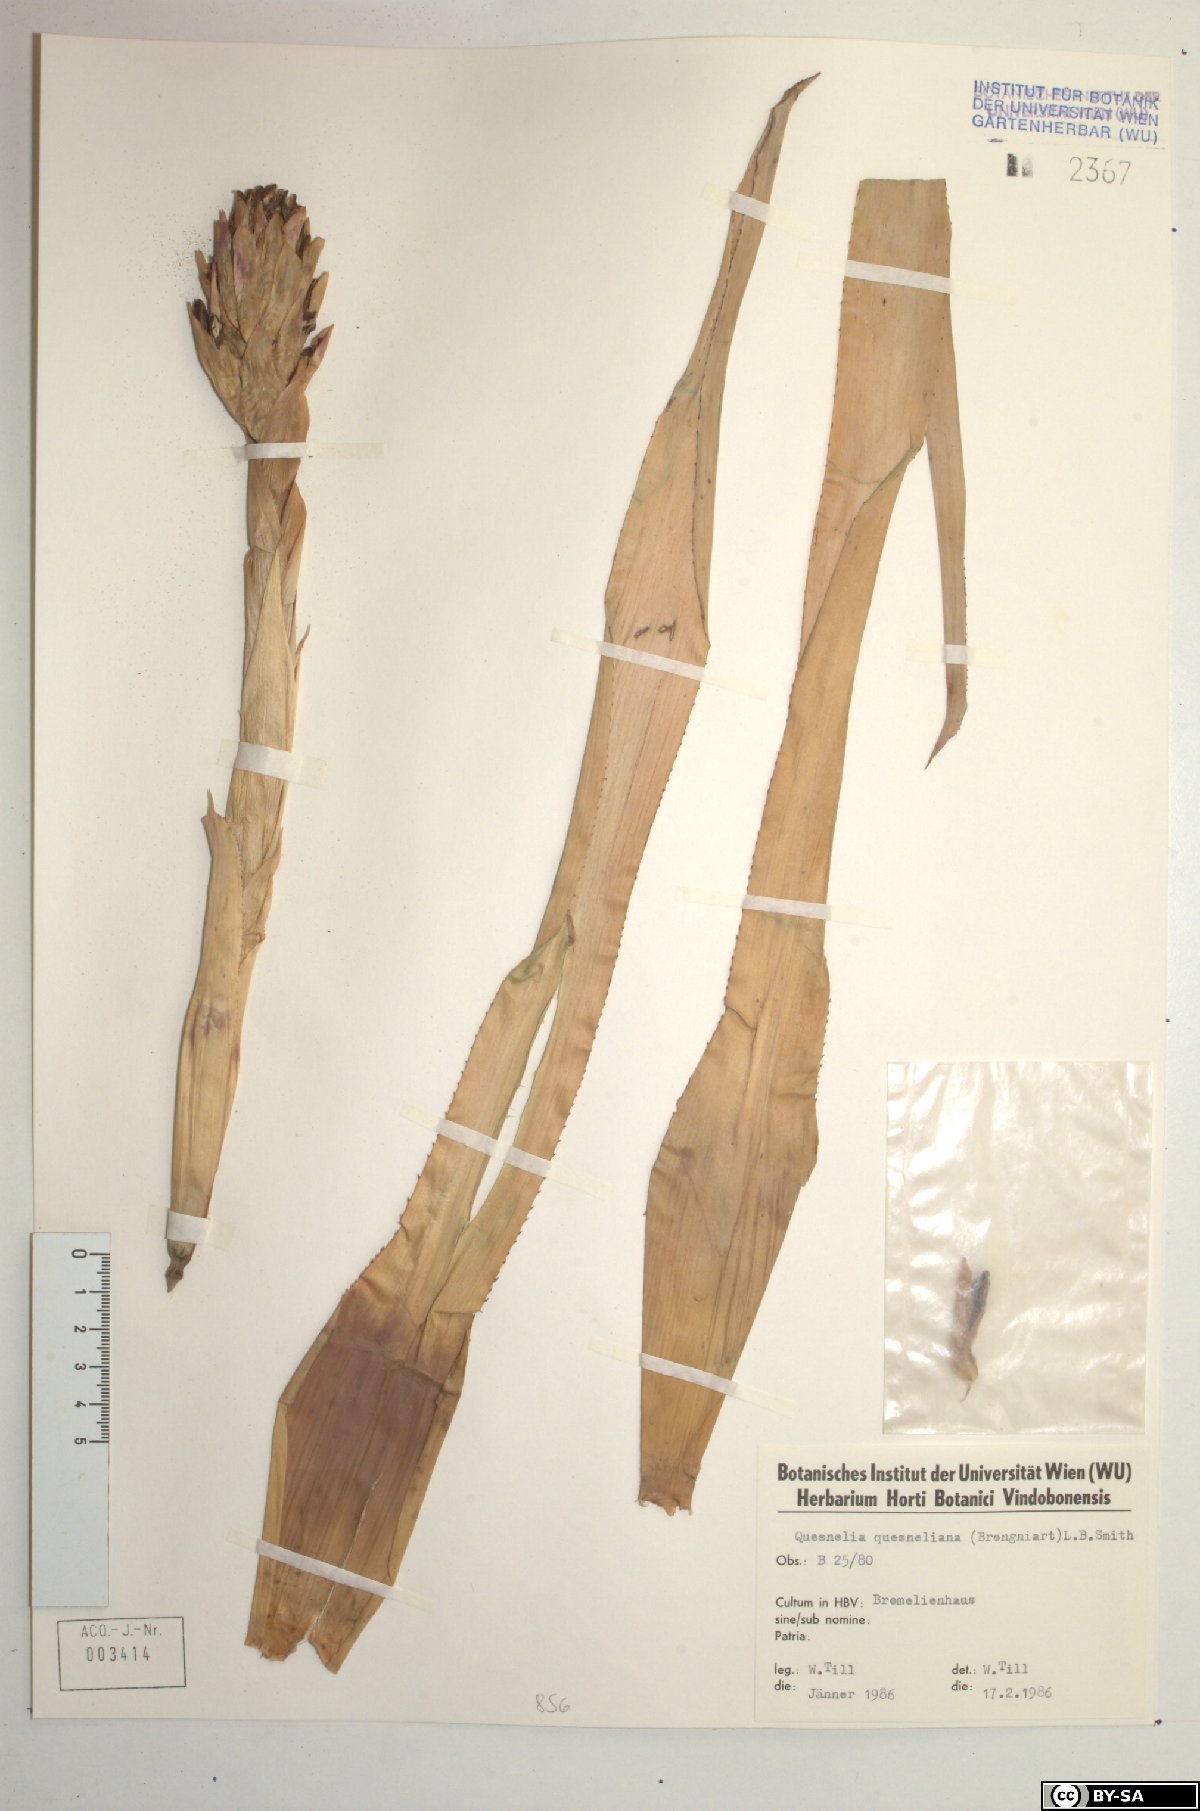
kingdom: Plantae
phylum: Tracheophyta
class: Liliopsida
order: Poales
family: Bromeliaceae
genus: Quesnelia
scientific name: Quesnelia quesneliana
